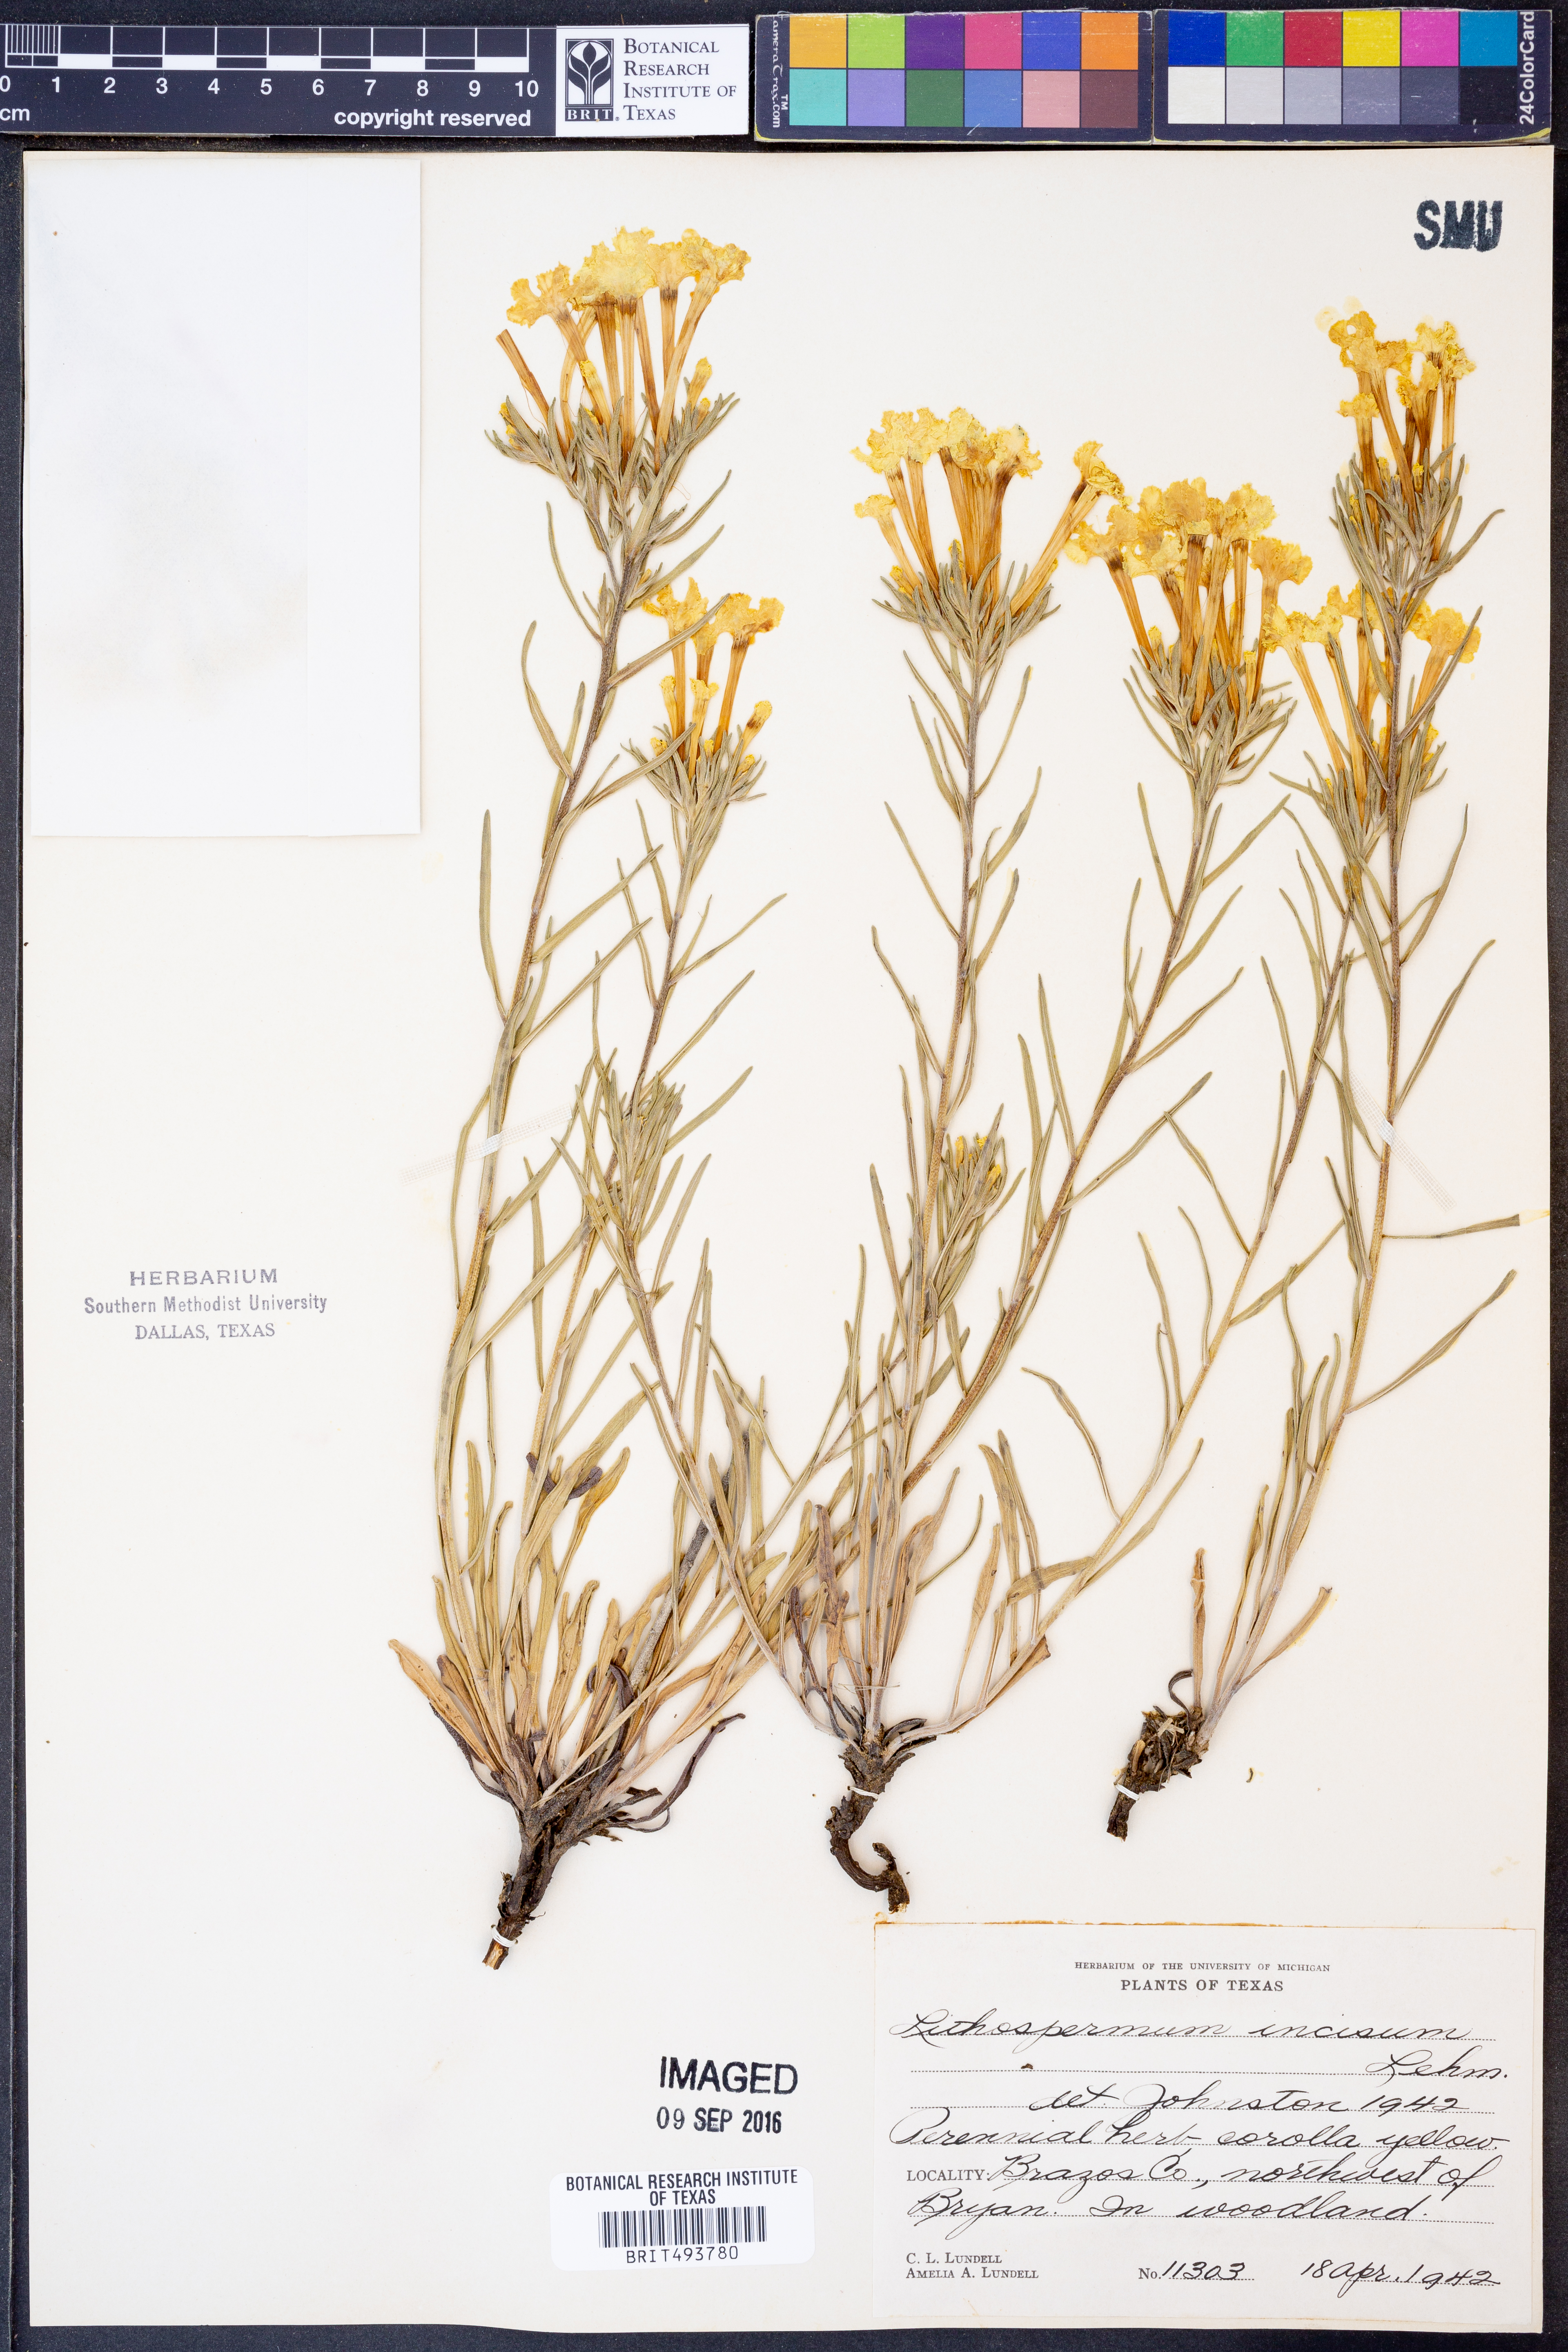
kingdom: Plantae
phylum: Tracheophyta
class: Magnoliopsida
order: Boraginales
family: Boraginaceae
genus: Lithospermum
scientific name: Lithospermum incisum
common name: Fringed gromwell
